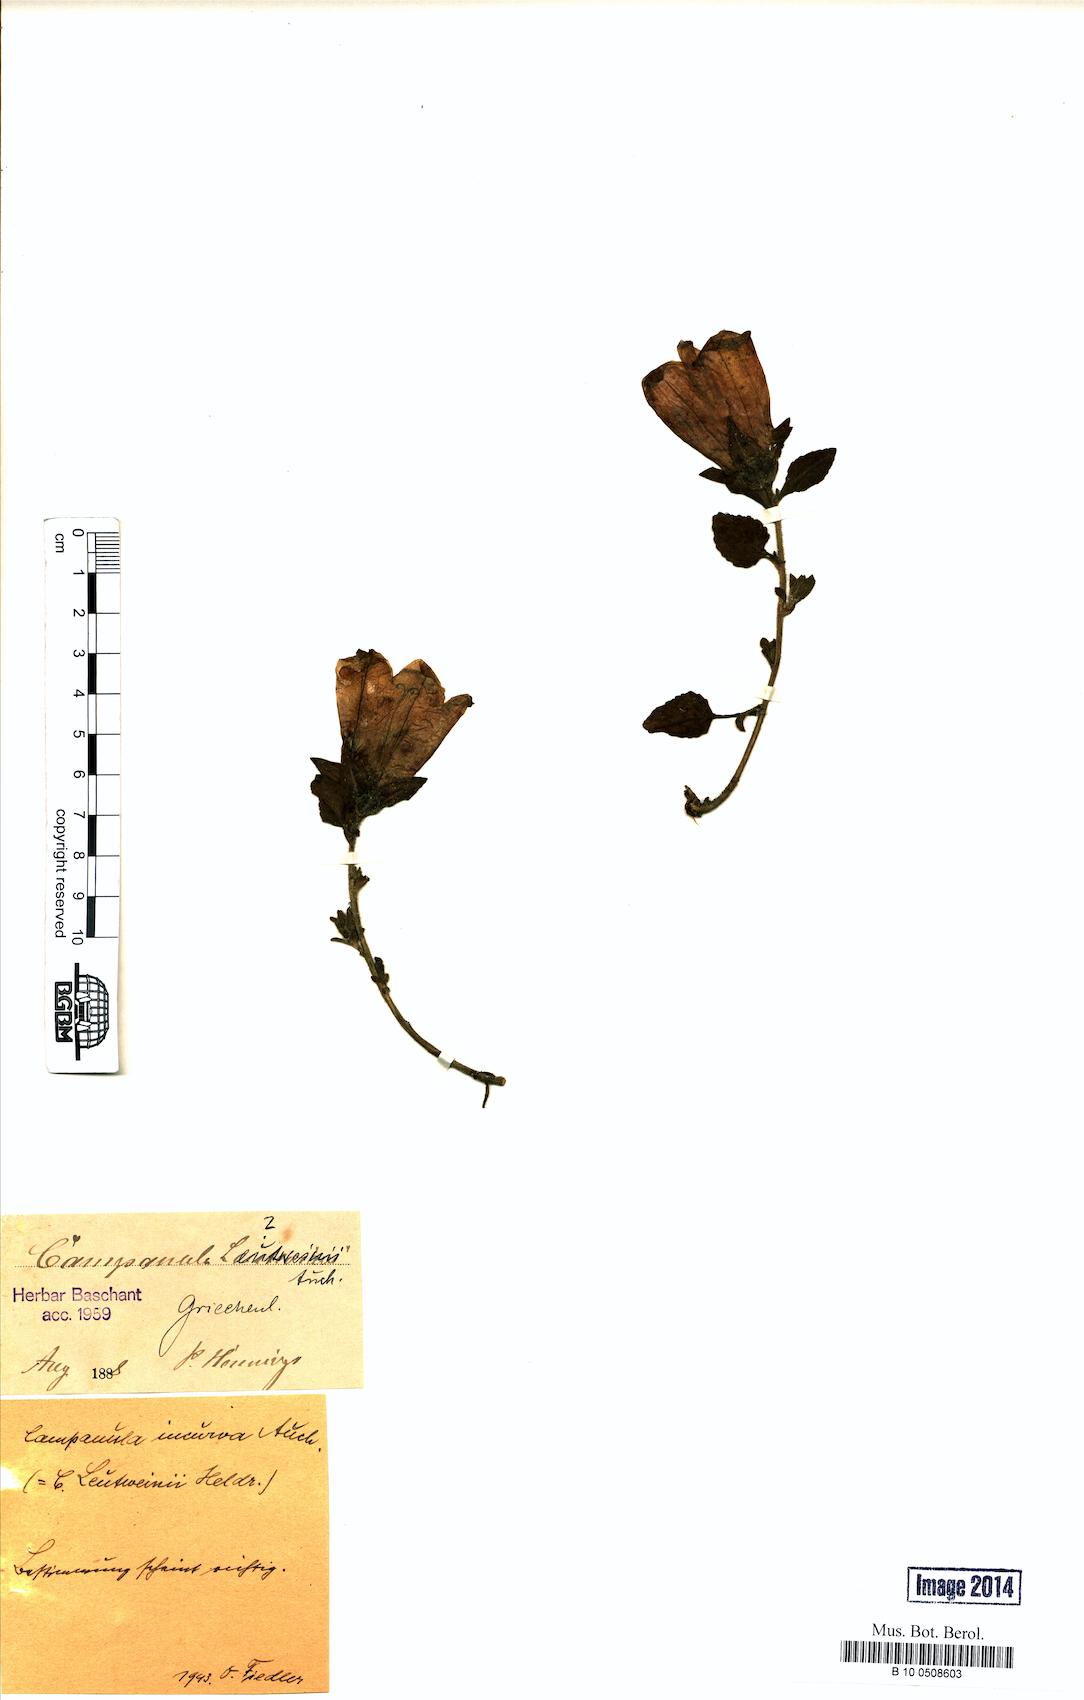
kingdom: Plantae
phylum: Tracheophyta
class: Magnoliopsida
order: Asterales
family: Campanulaceae
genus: Campanula
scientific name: Campanula incurva
